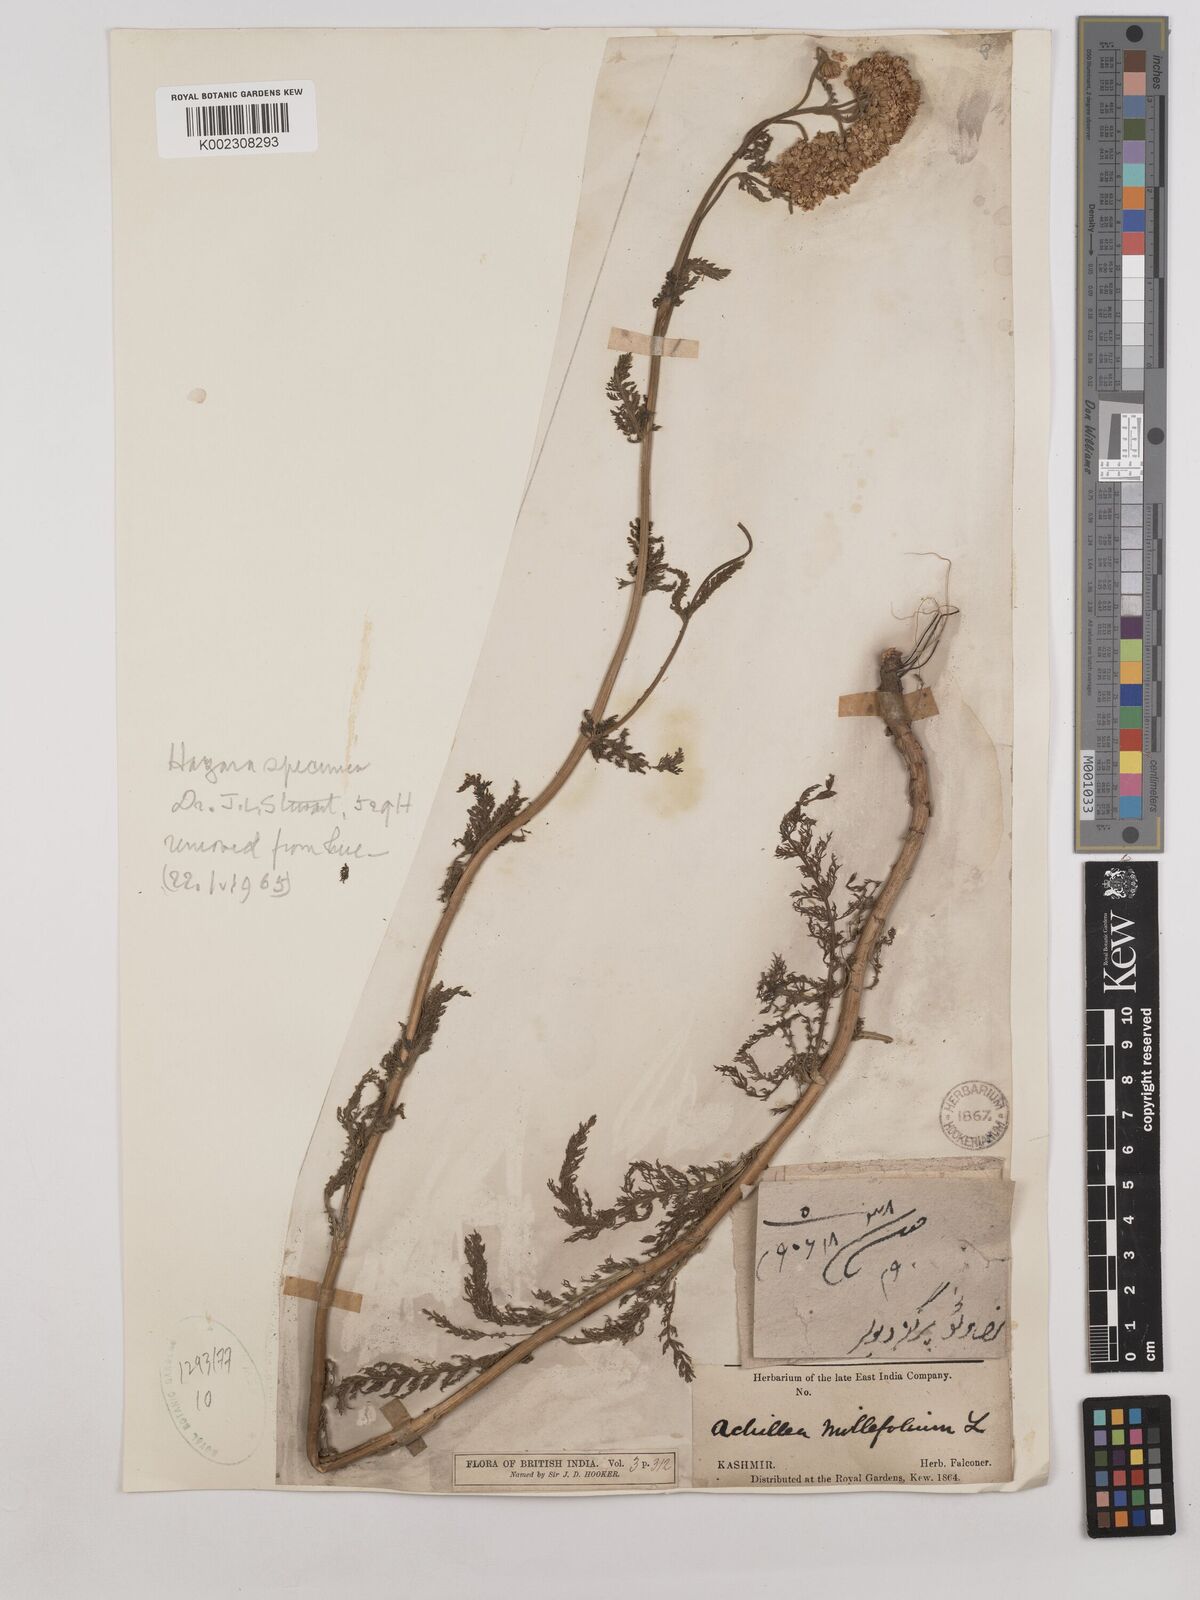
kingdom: Plantae
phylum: Tracheophyta
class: Magnoliopsida
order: Asterales
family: Asteraceae
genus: Achillea
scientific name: Achillea millefolium
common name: Yarrow
